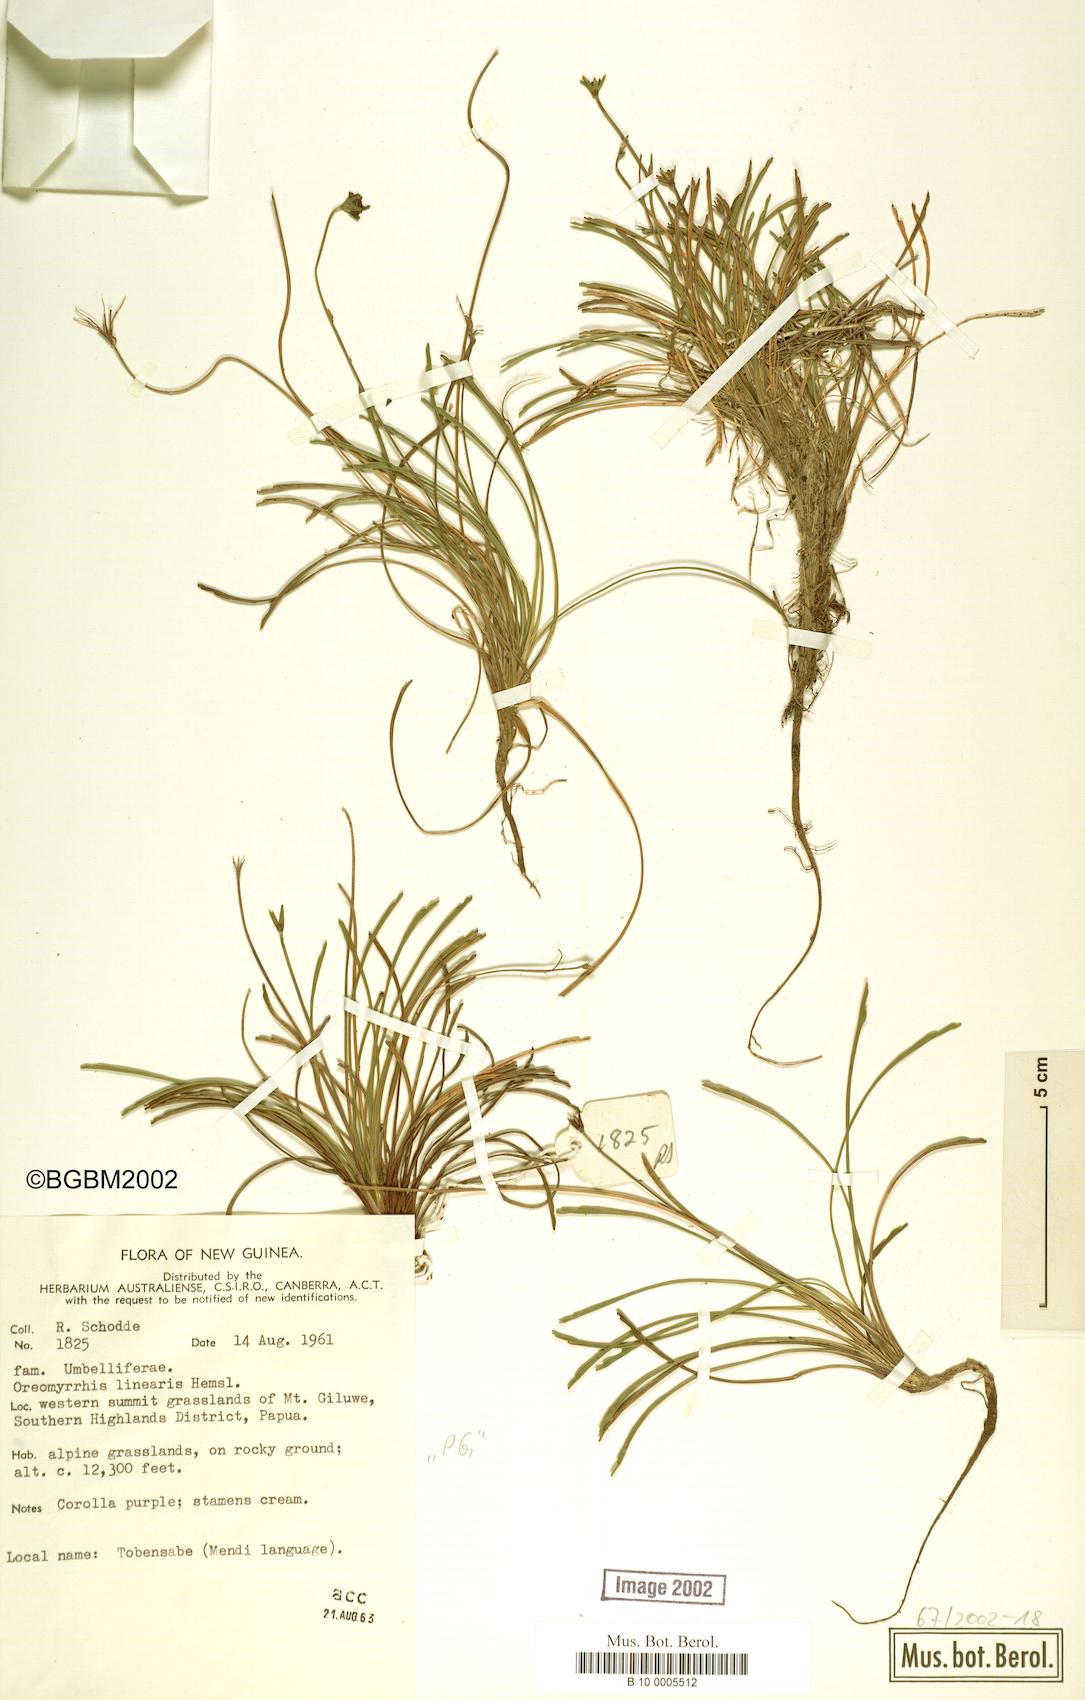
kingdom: Plantae
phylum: Tracheophyta
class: Magnoliopsida
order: Apiales
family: Apiaceae
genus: Chaerophyllum
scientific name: Chaerophyllum lineare
